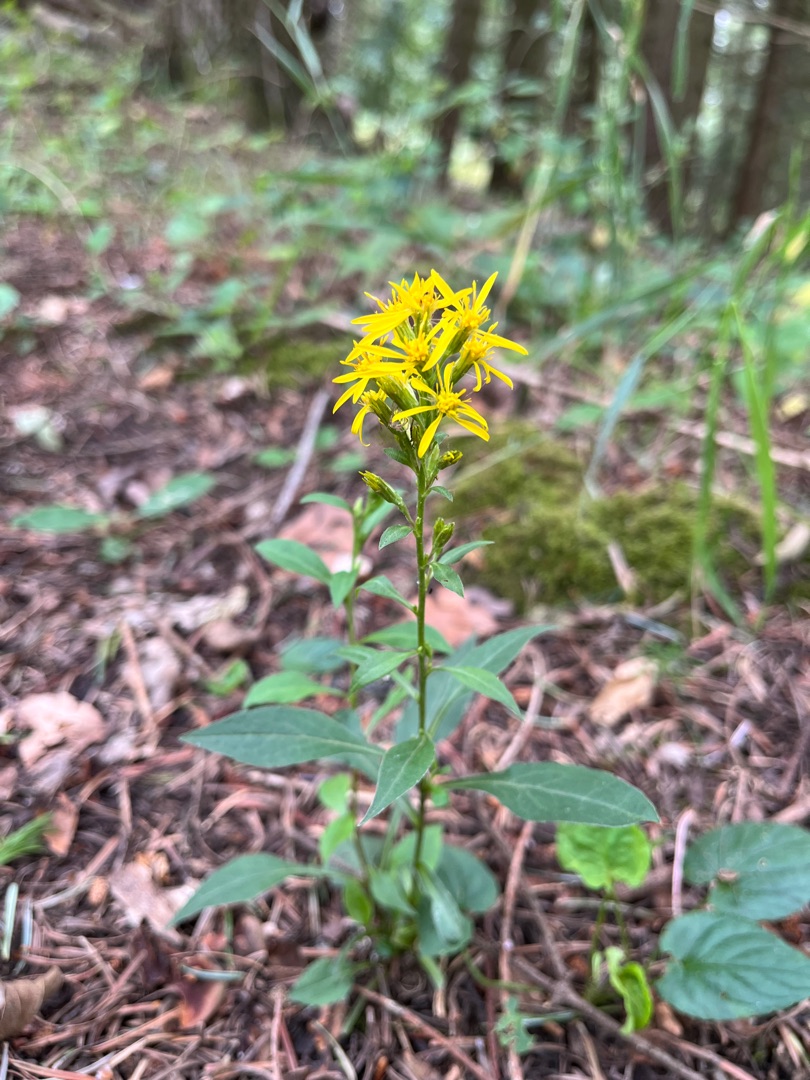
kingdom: Plantae
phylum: Tracheophyta
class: Magnoliopsida
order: Asterales
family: Asteraceae
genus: Solidago
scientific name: Solidago virgaurea
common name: Almindelig gyldenris
